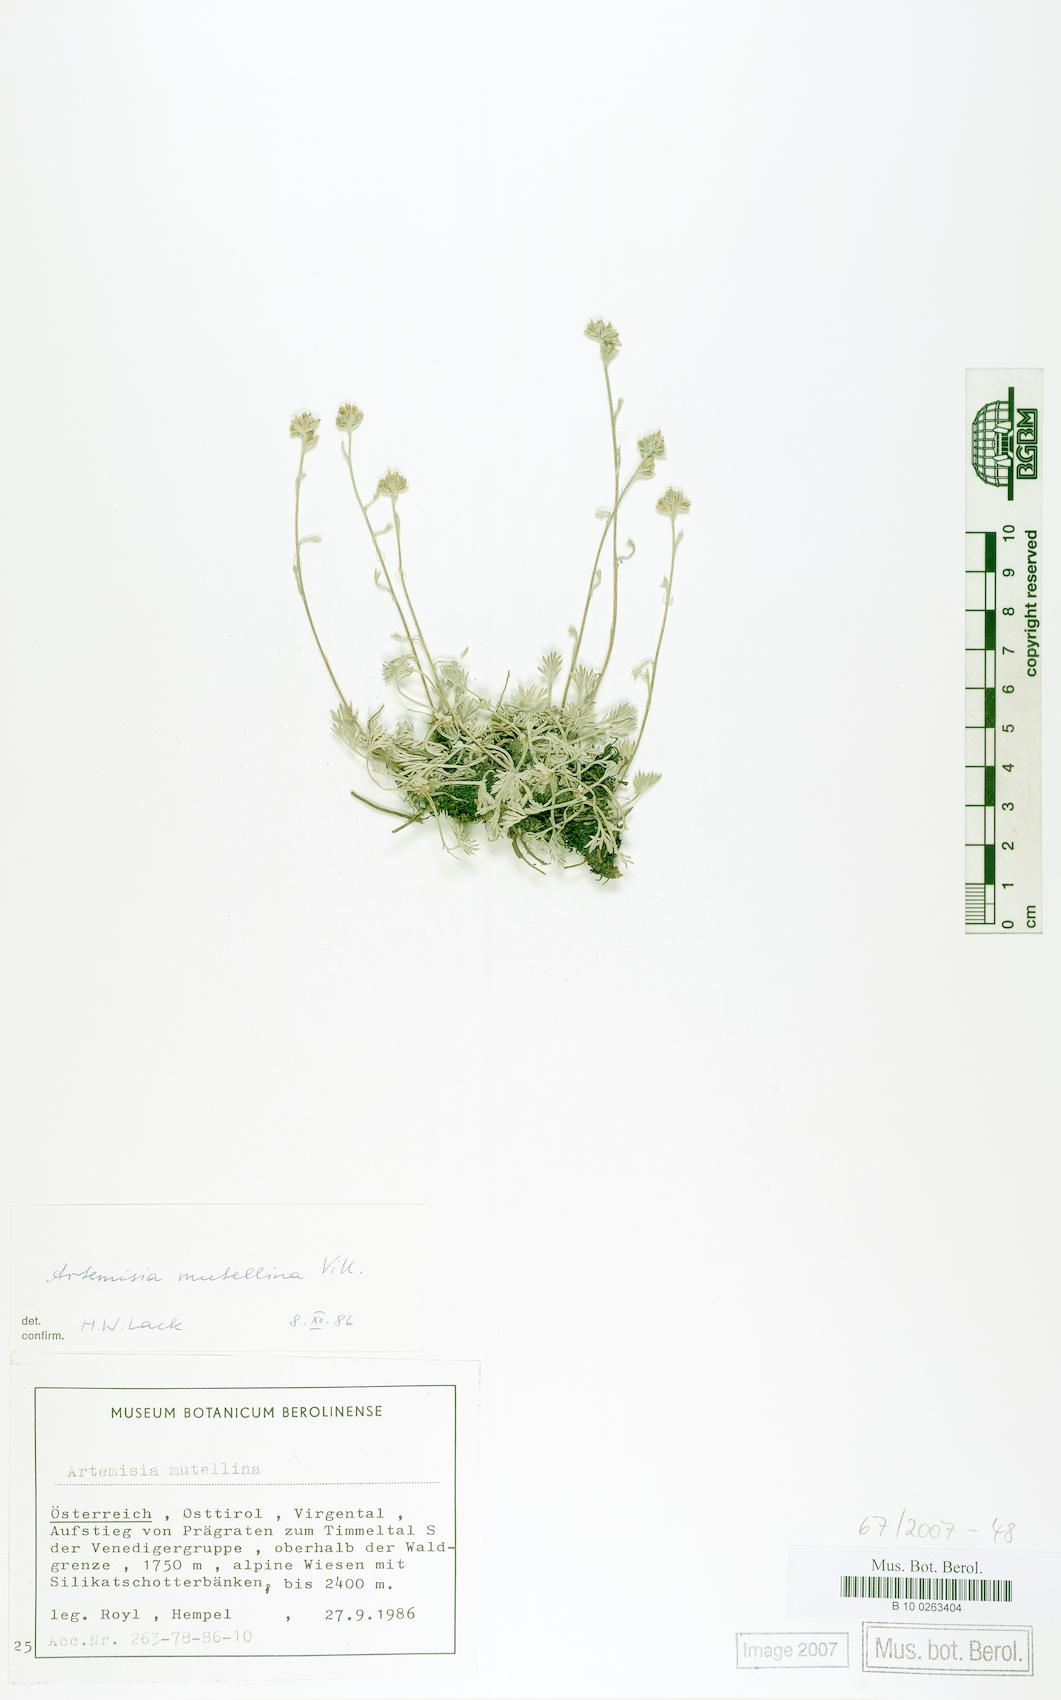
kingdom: Plantae
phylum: Tracheophyta
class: Magnoliopsida
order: Asterales
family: Asteraceae
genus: Artemisia
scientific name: Artemisia mutellina
